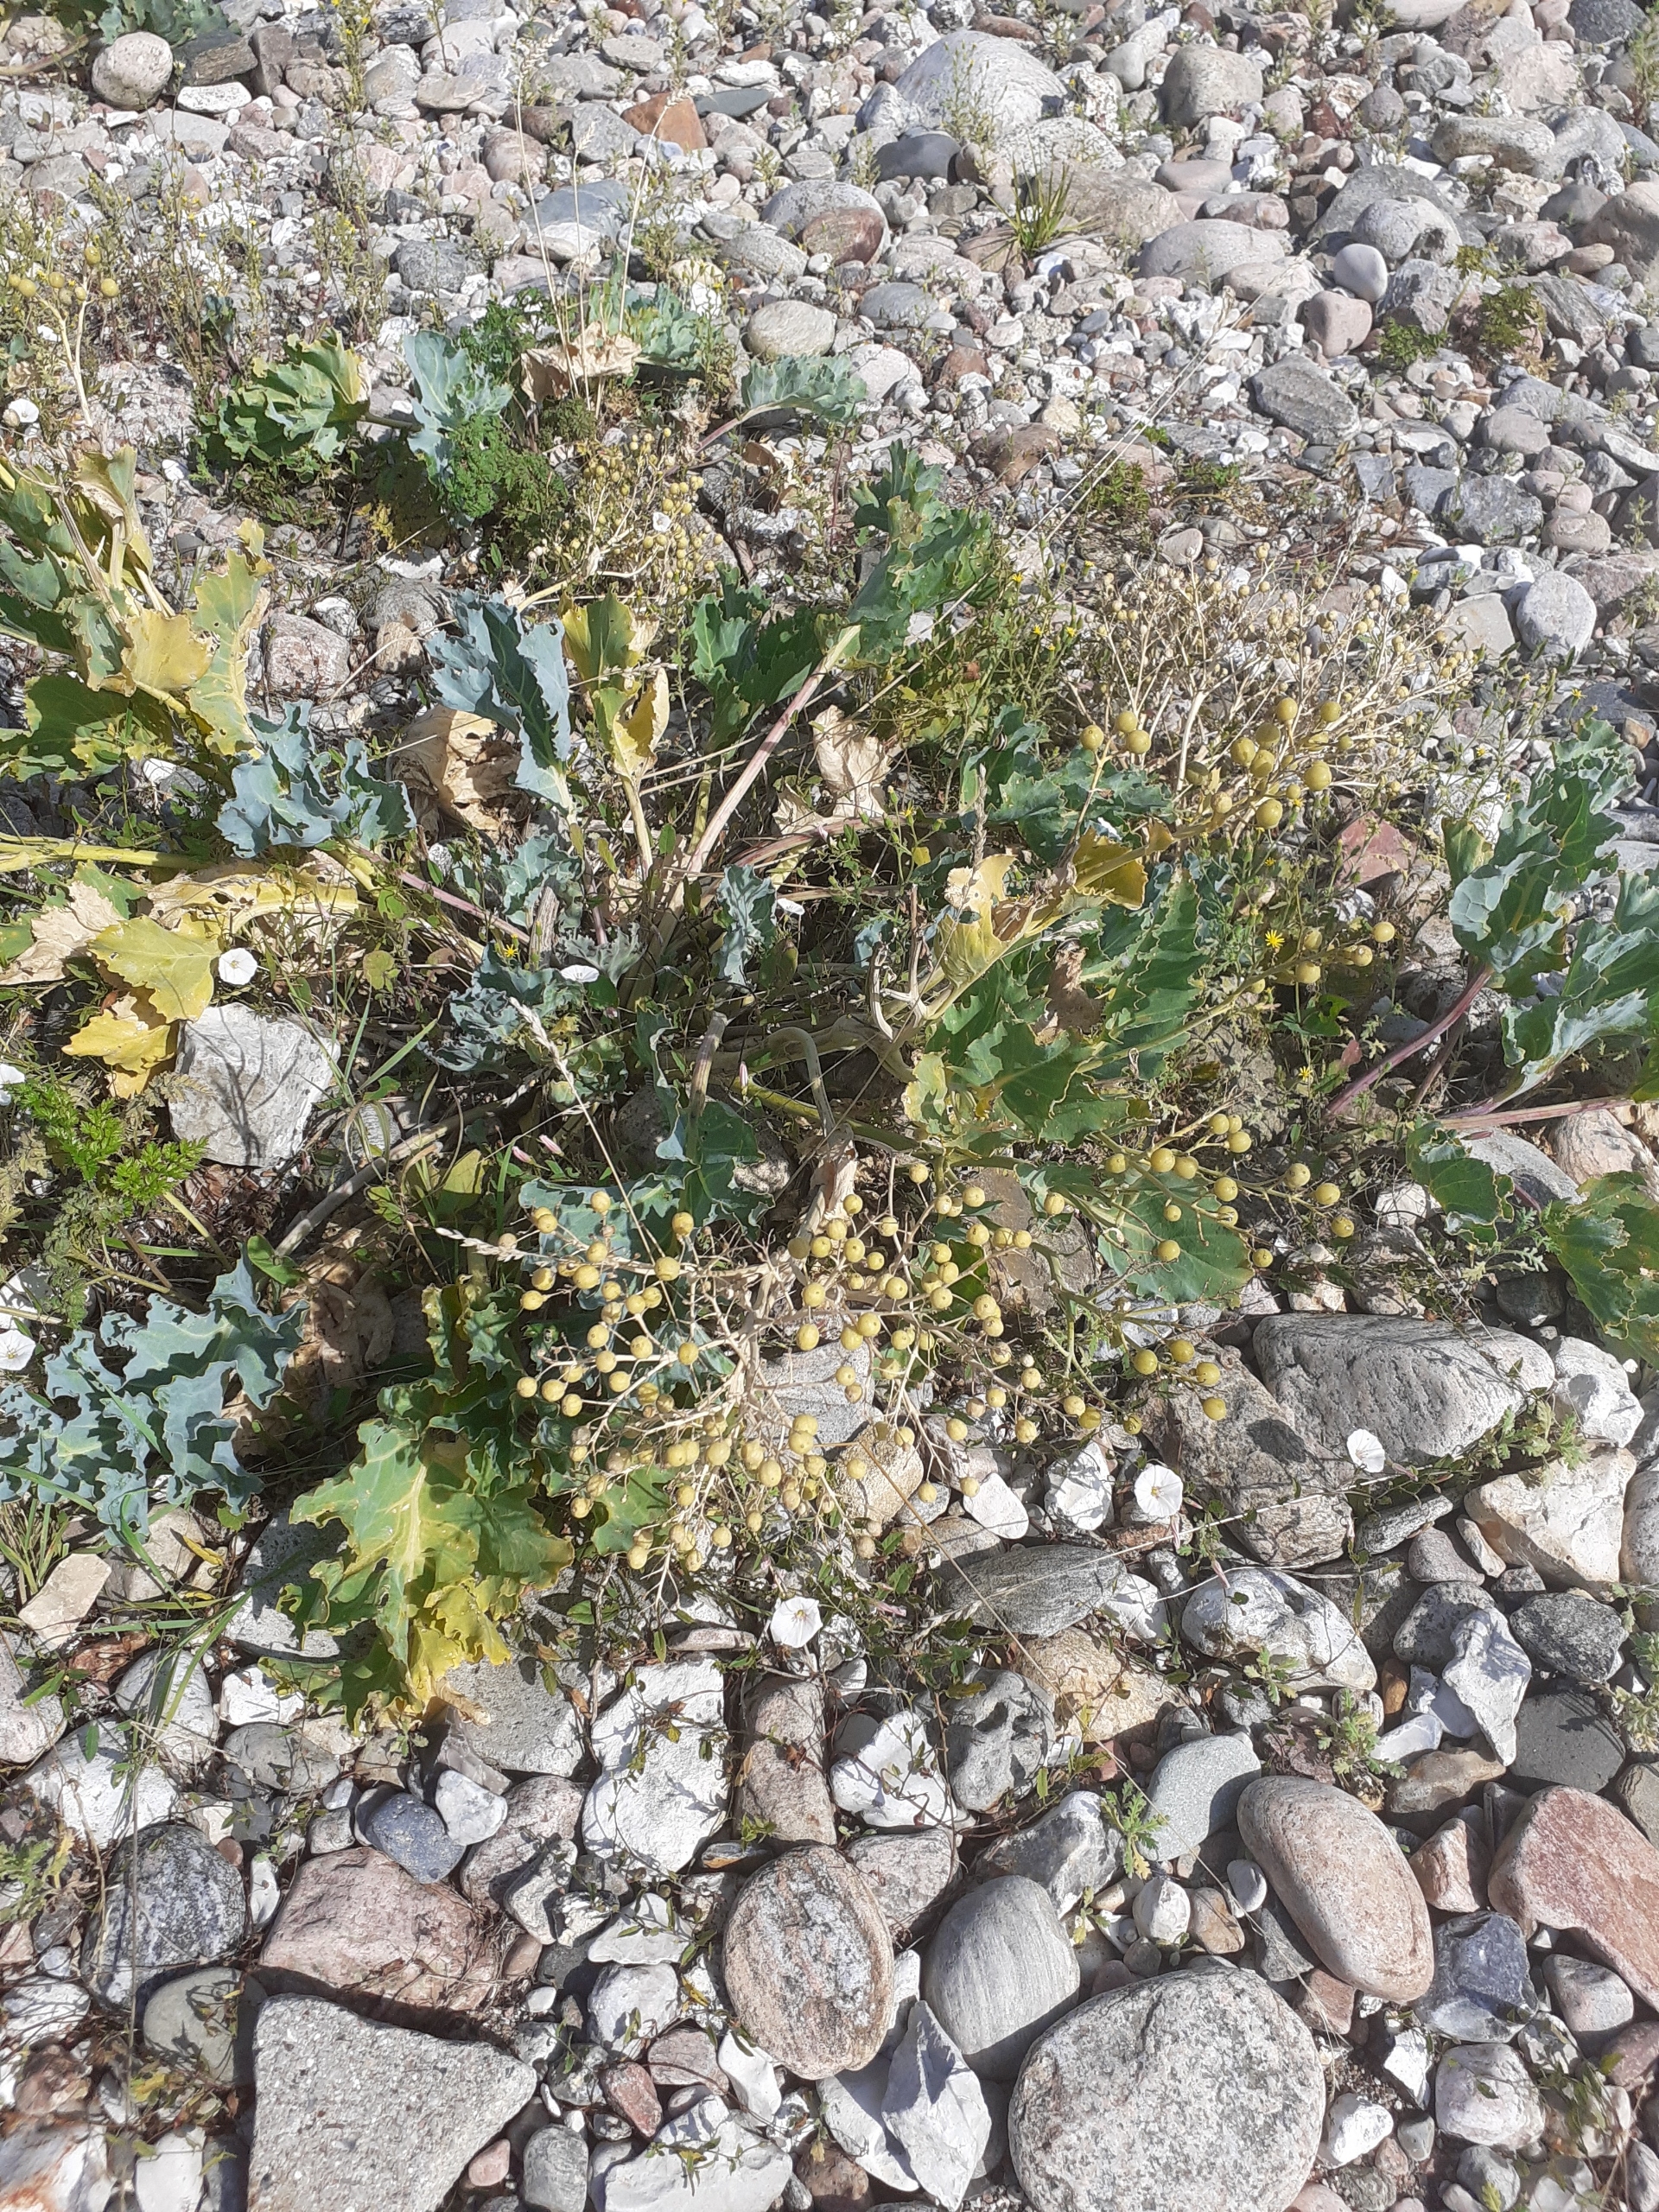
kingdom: Plantae
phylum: Tracheophyta
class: Magnoliopsida
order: Brassicales
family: Brassicaceae
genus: Crambe
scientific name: Crambe maritima
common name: Strandkål
